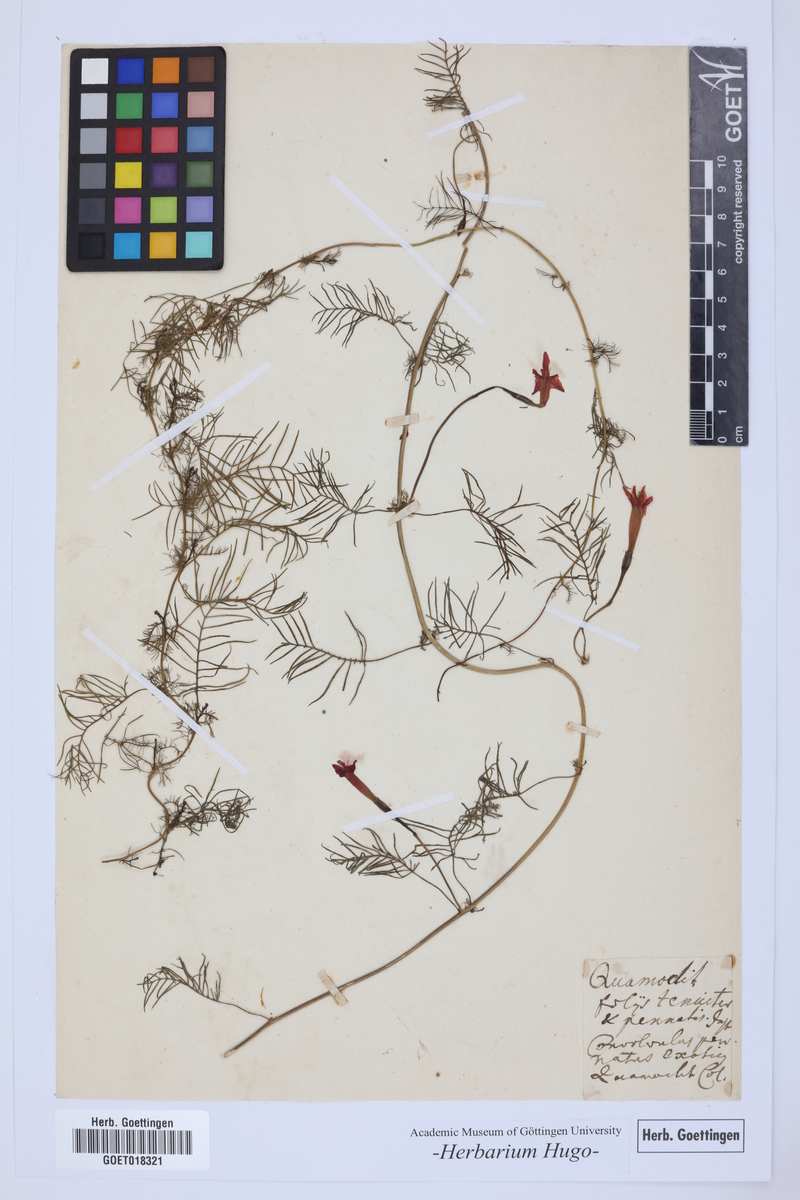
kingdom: Plantae
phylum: Tracheophyta
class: Magnoliopsida
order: Solanales
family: Convolvulaceae
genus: Ipomoea
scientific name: Ipomoea quamoclit
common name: Cypress vine
